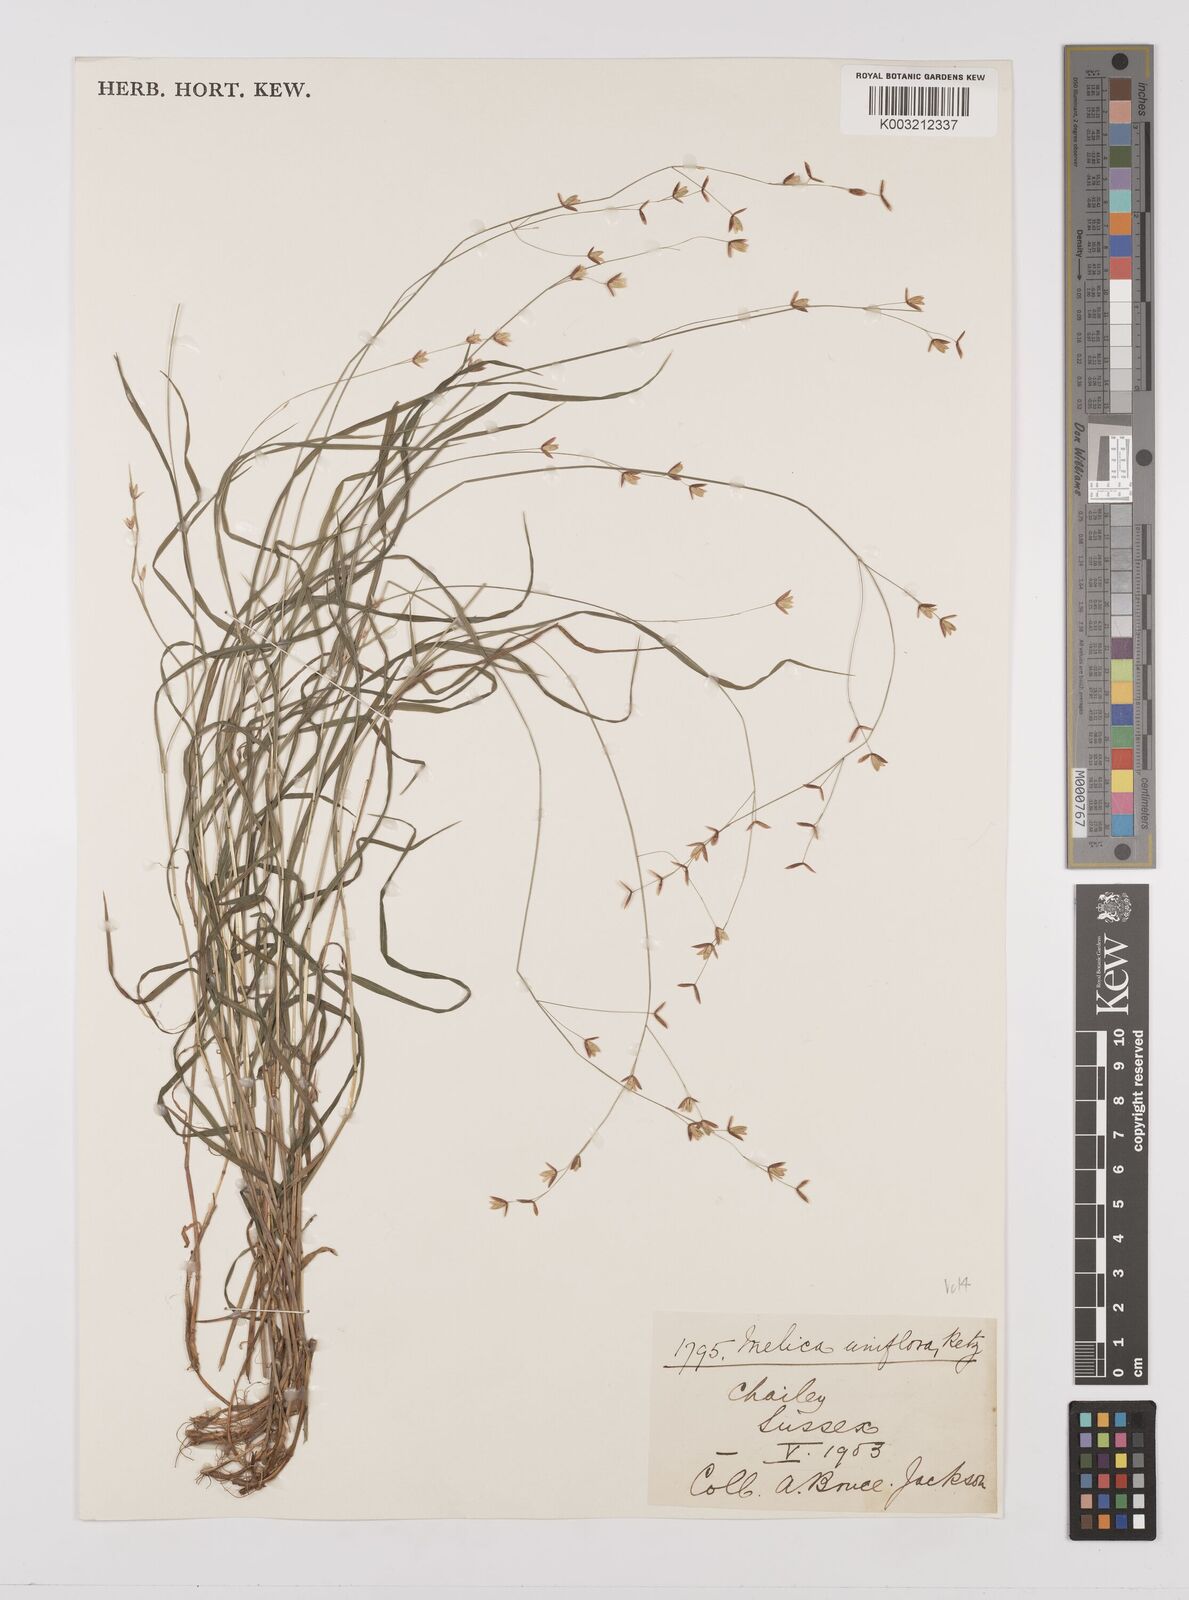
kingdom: Plantae
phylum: Tracheophyta
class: Liliopsida
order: Poales
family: Poaceae
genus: Melica
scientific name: Melica uniflora
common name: Wood melick
